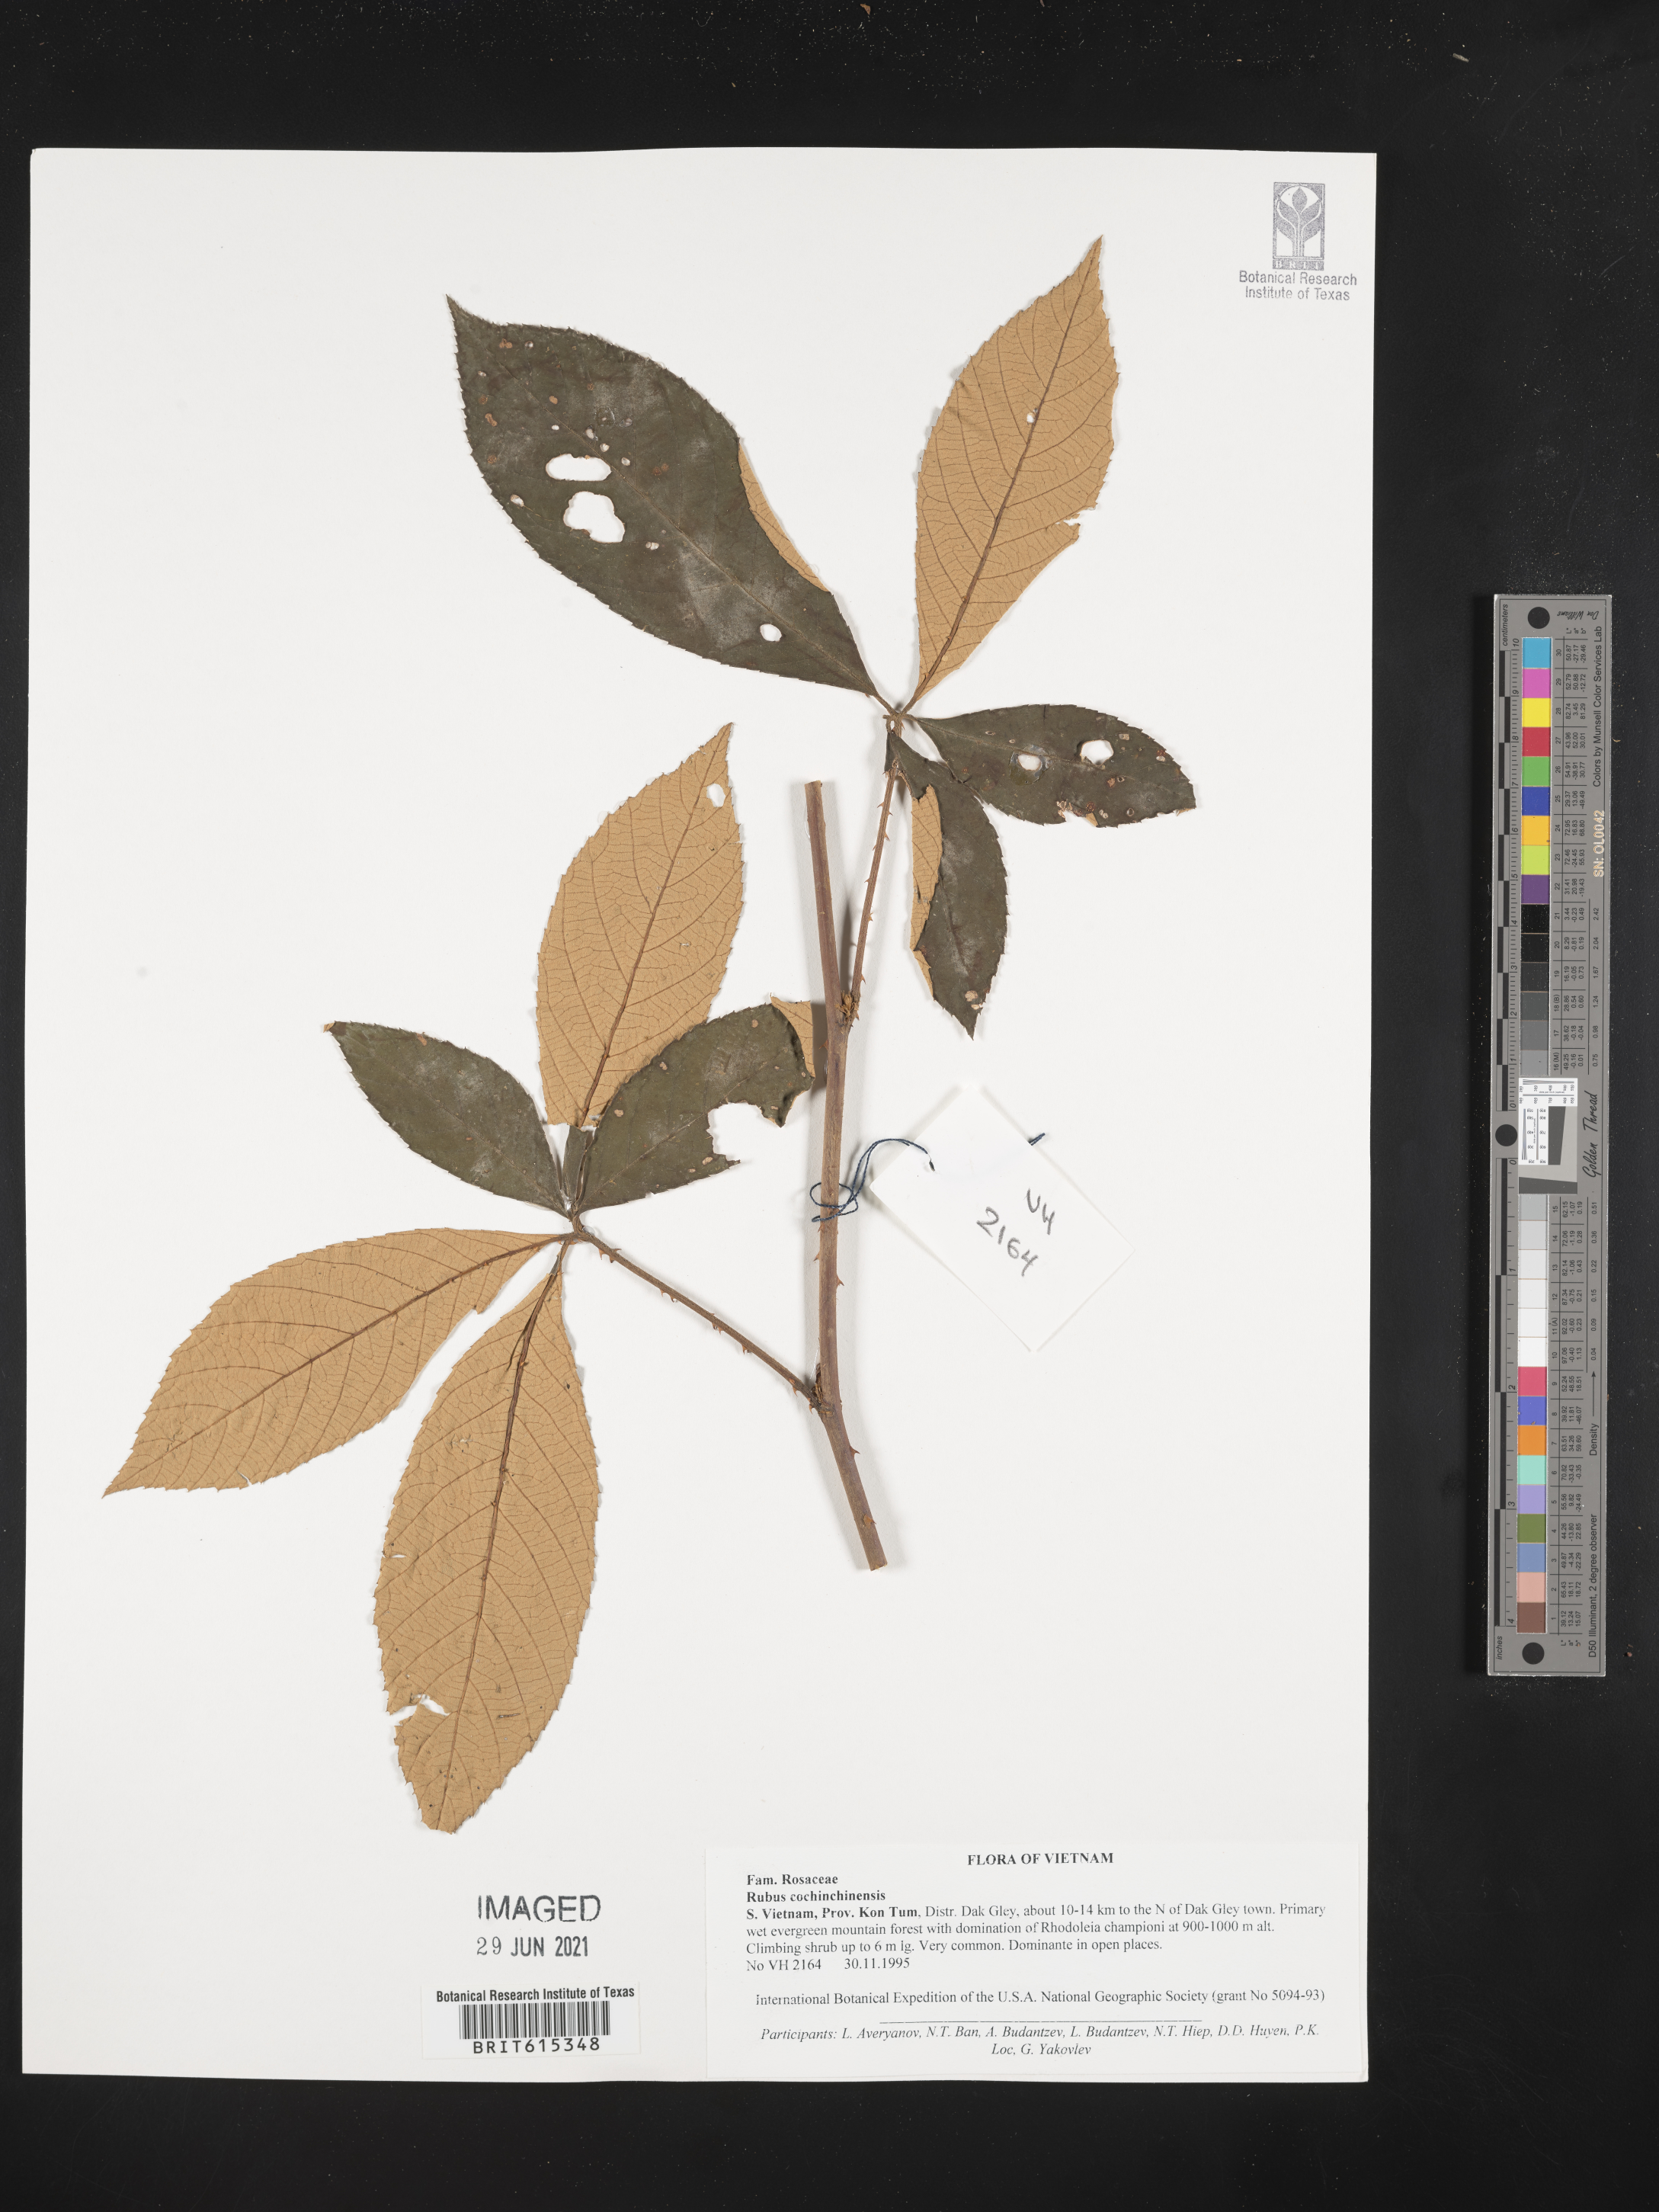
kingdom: Plantae
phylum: Tracheophyta
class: Magnoliopsida
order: Rosales
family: Rosaceae
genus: Rubus
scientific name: Rubus cochinchinensis
